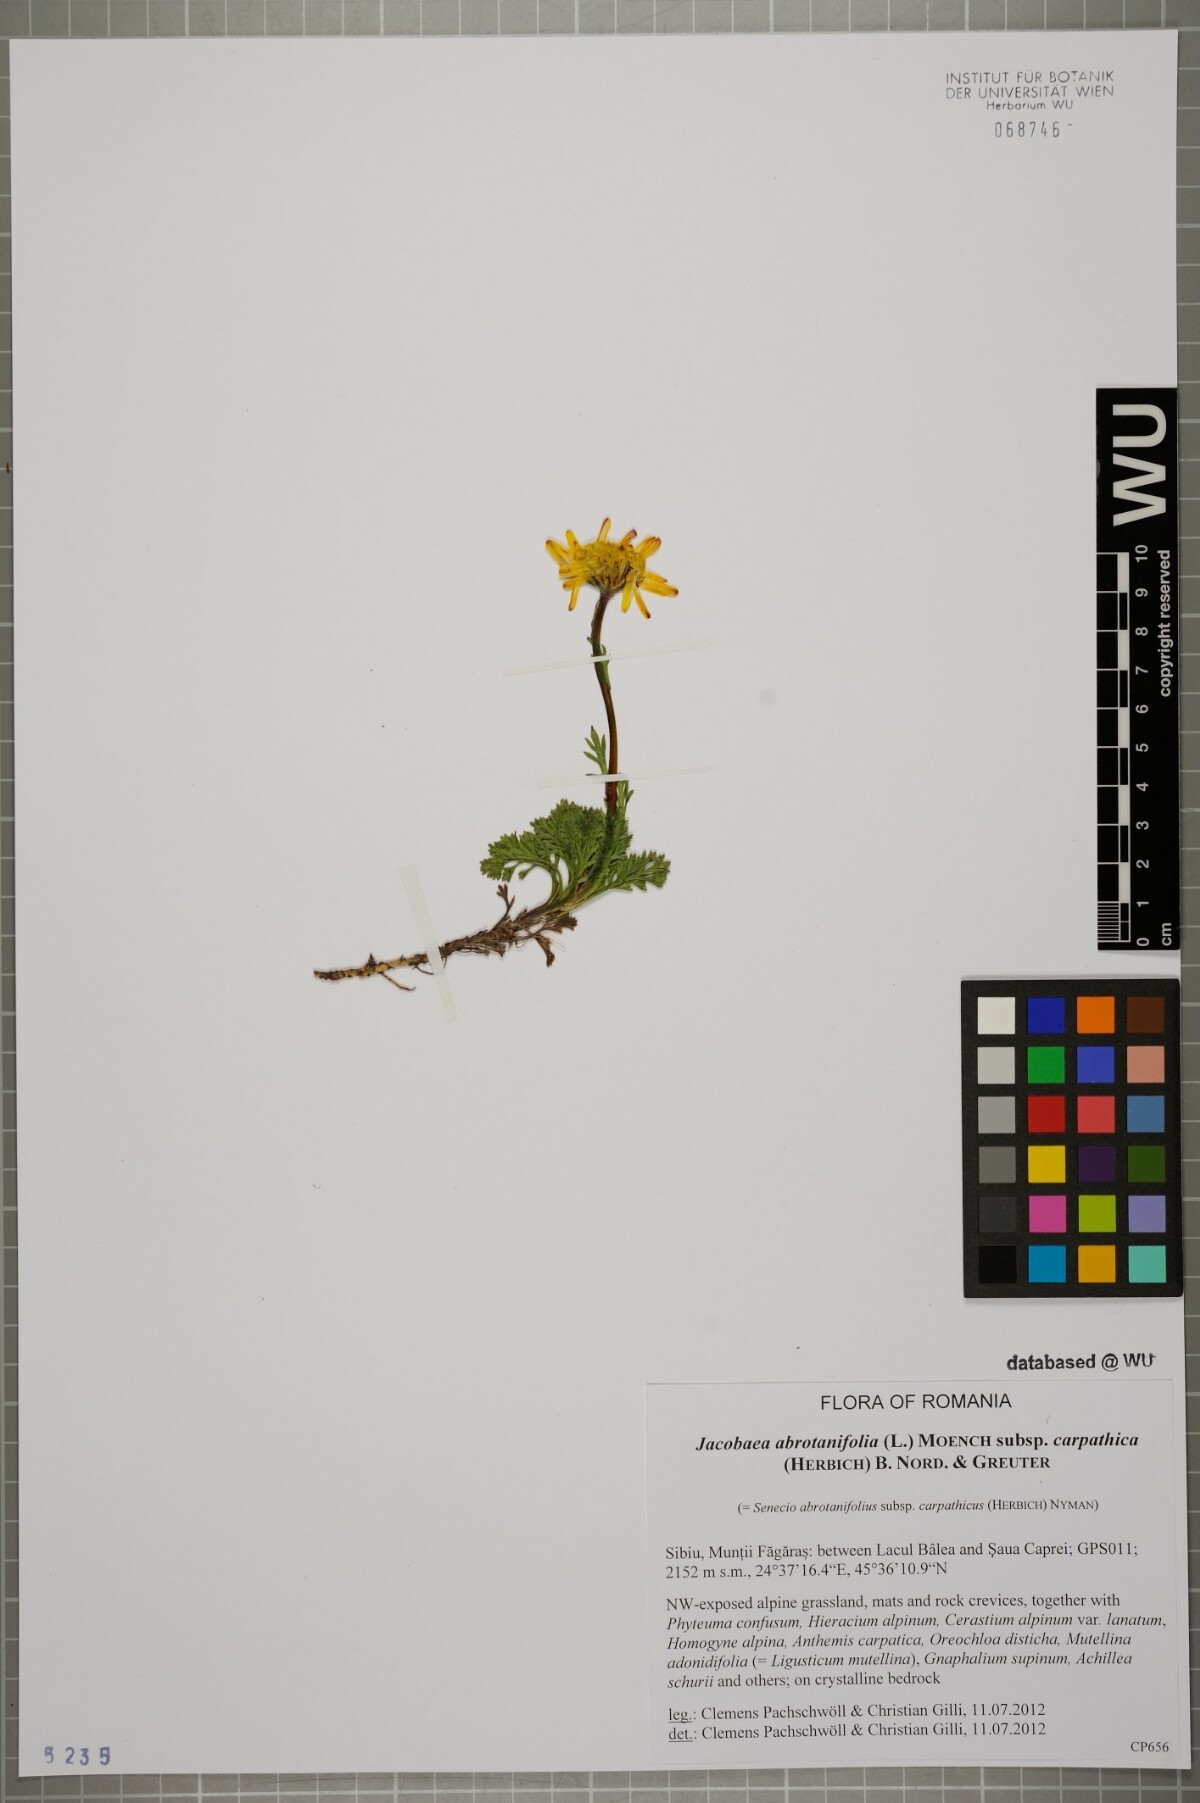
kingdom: Plantae
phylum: Tracheophyta
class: Magnoliopsida
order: Asterales
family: Asteraceae
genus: Jacobaea
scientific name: Jacobaea abrotanifolia
